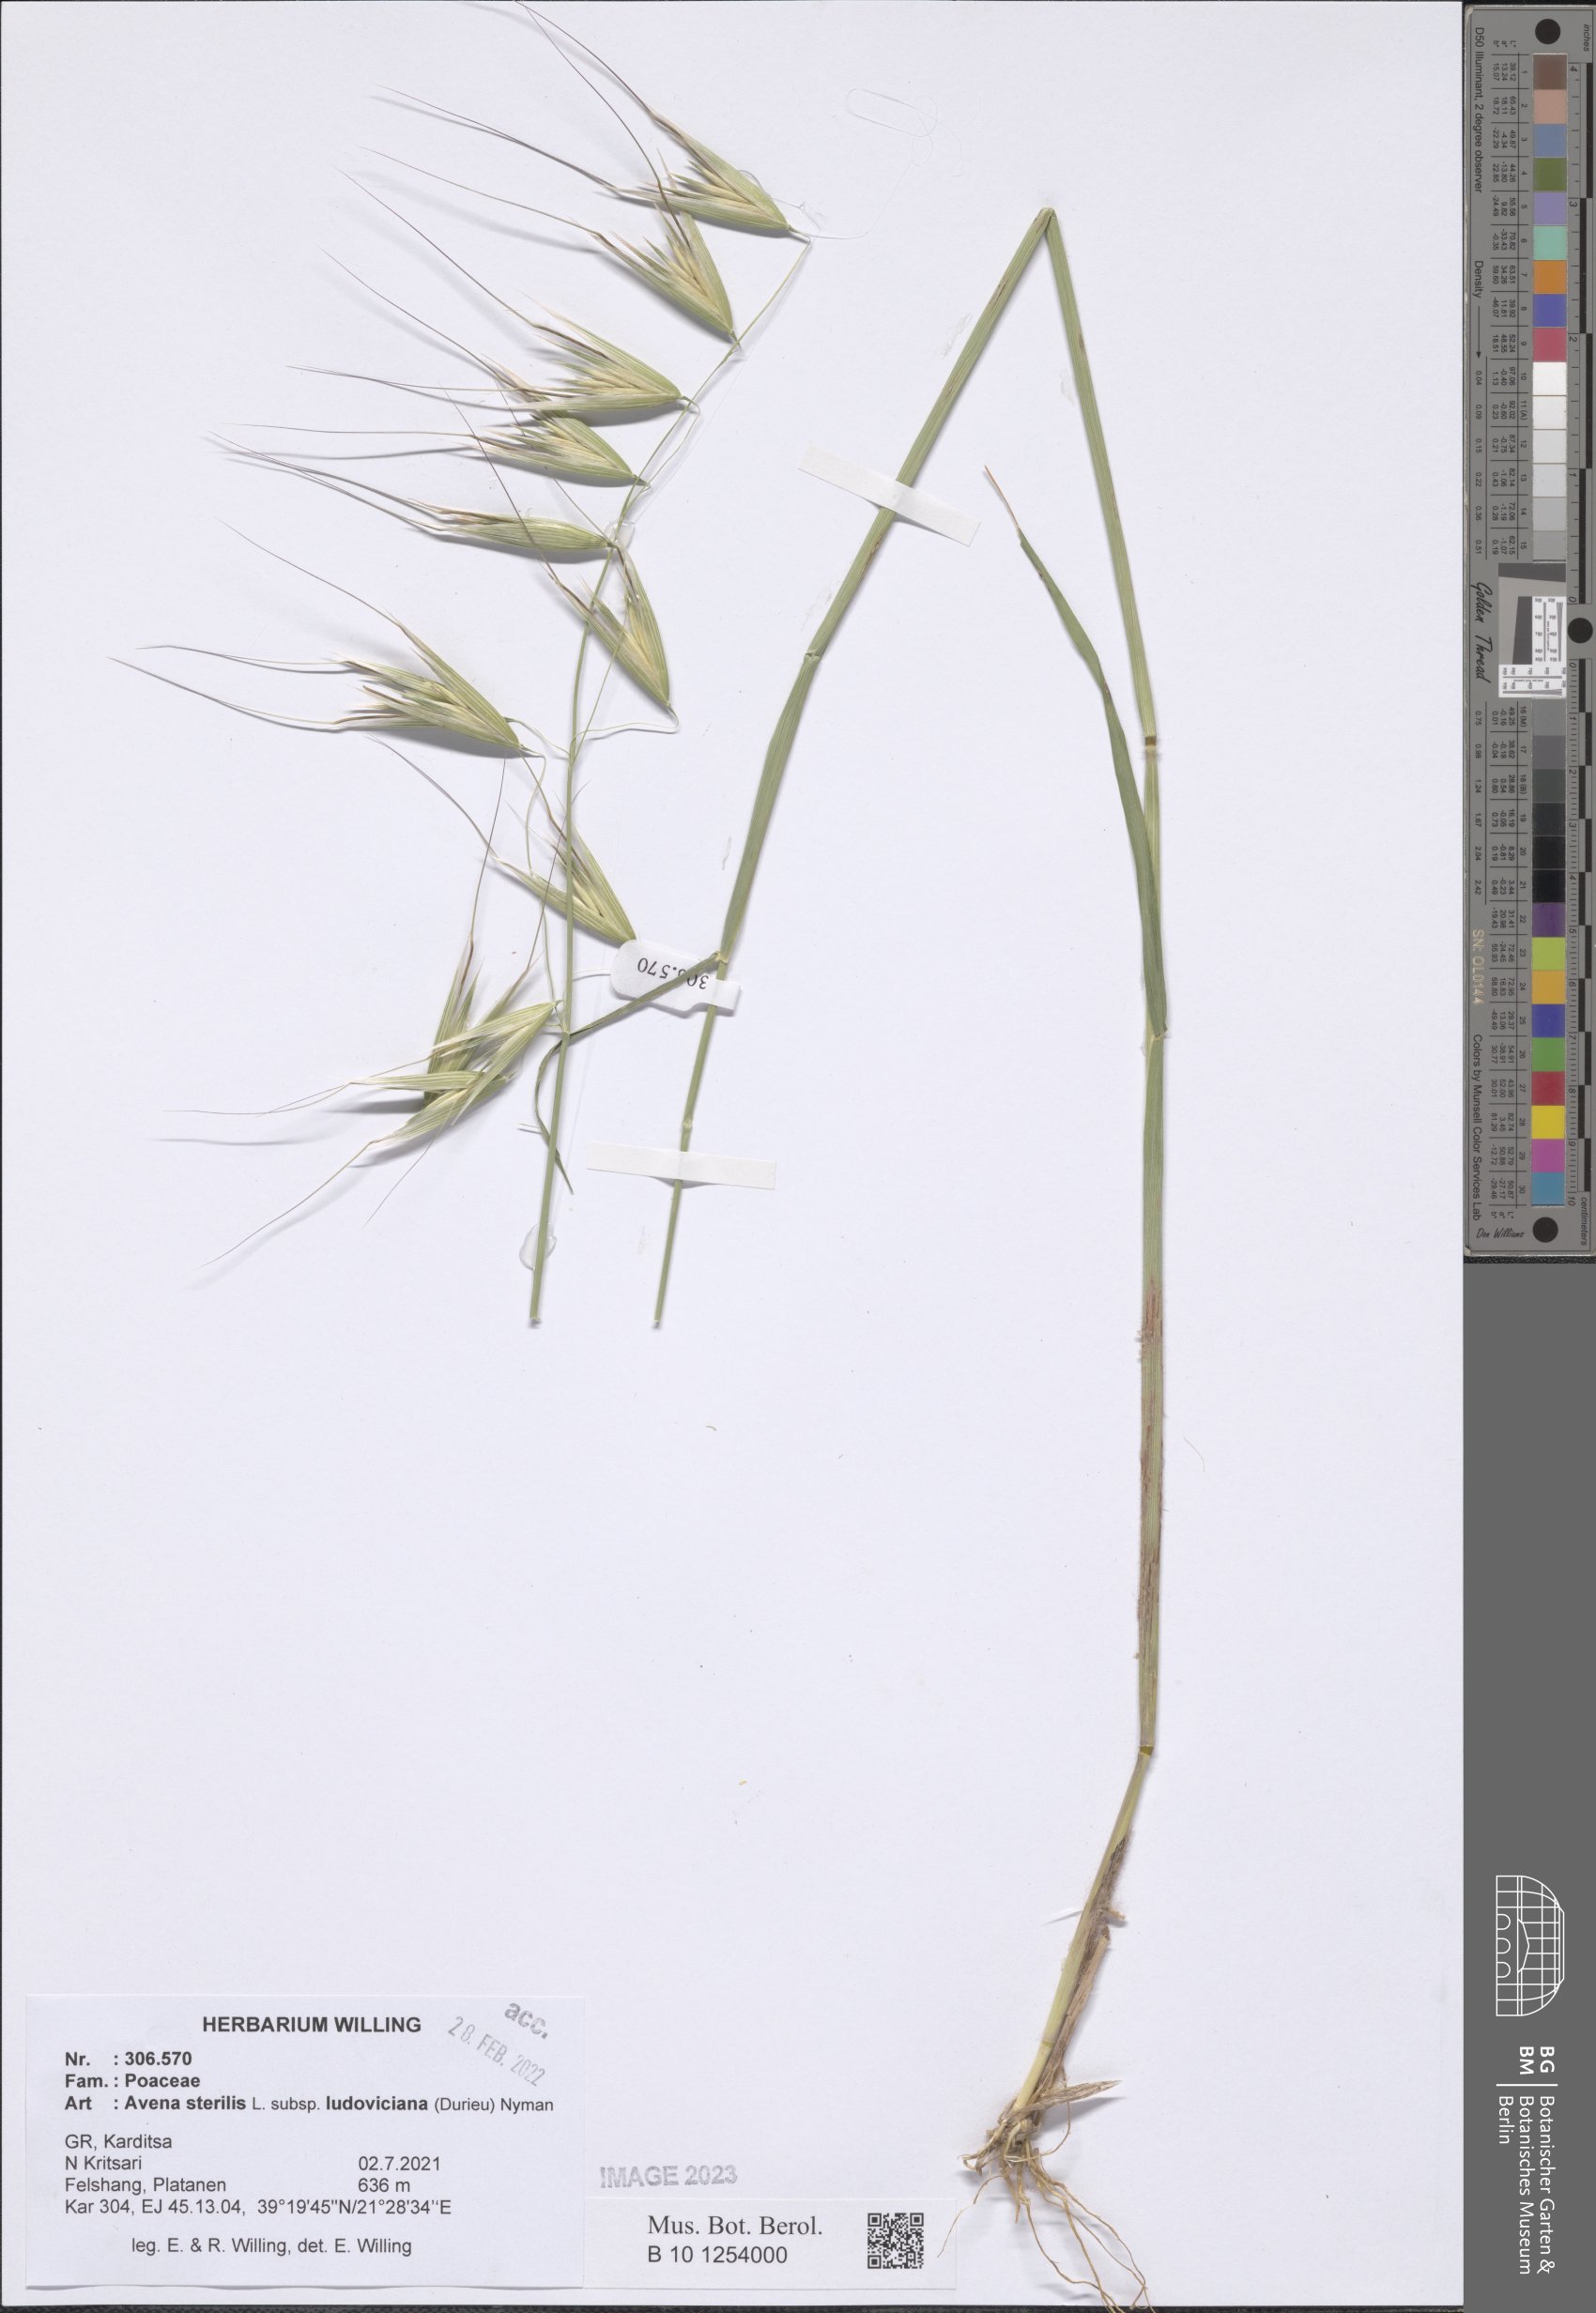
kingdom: Plantae
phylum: Tracheophyta
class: Liliopsida
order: Poales
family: Poaceae
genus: Avena
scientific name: Avena sterilis
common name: Animated oat
